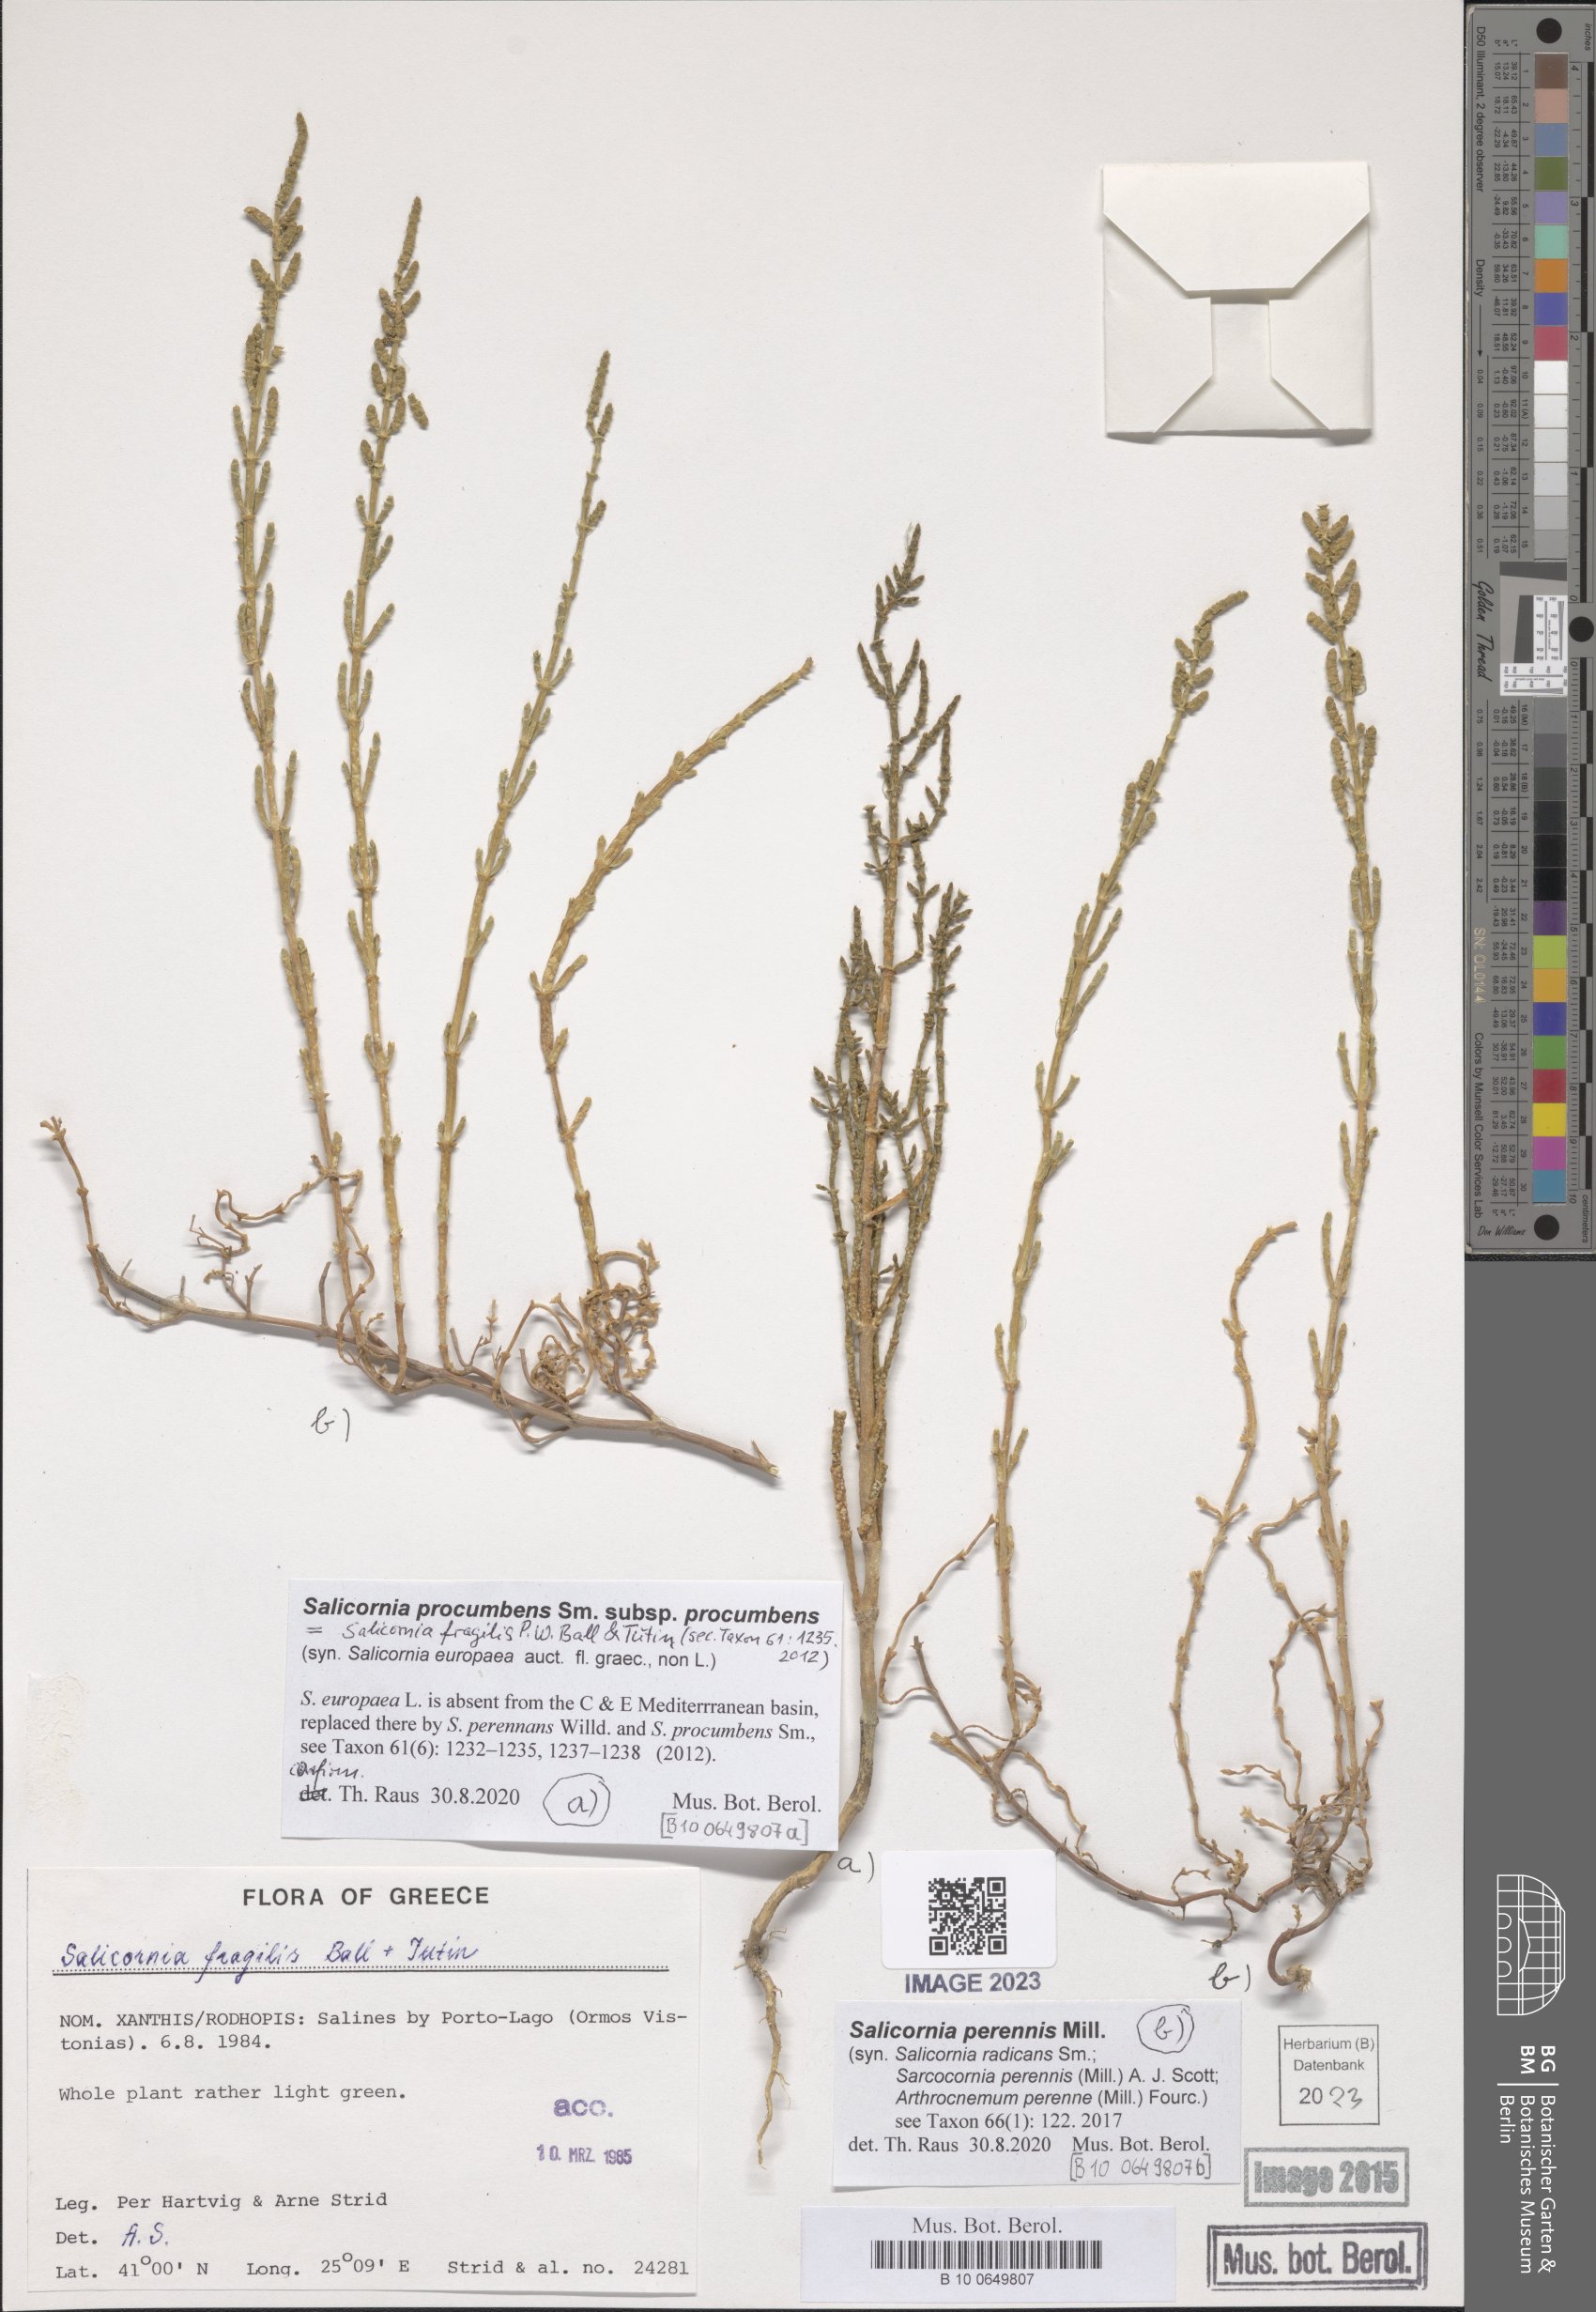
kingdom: Plantae
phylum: Tracheophyta
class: Magnoliopsida
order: Caryophyllales
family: Amaranthaceae
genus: Salicornia
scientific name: Salicornia perennis
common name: Chicken claws
